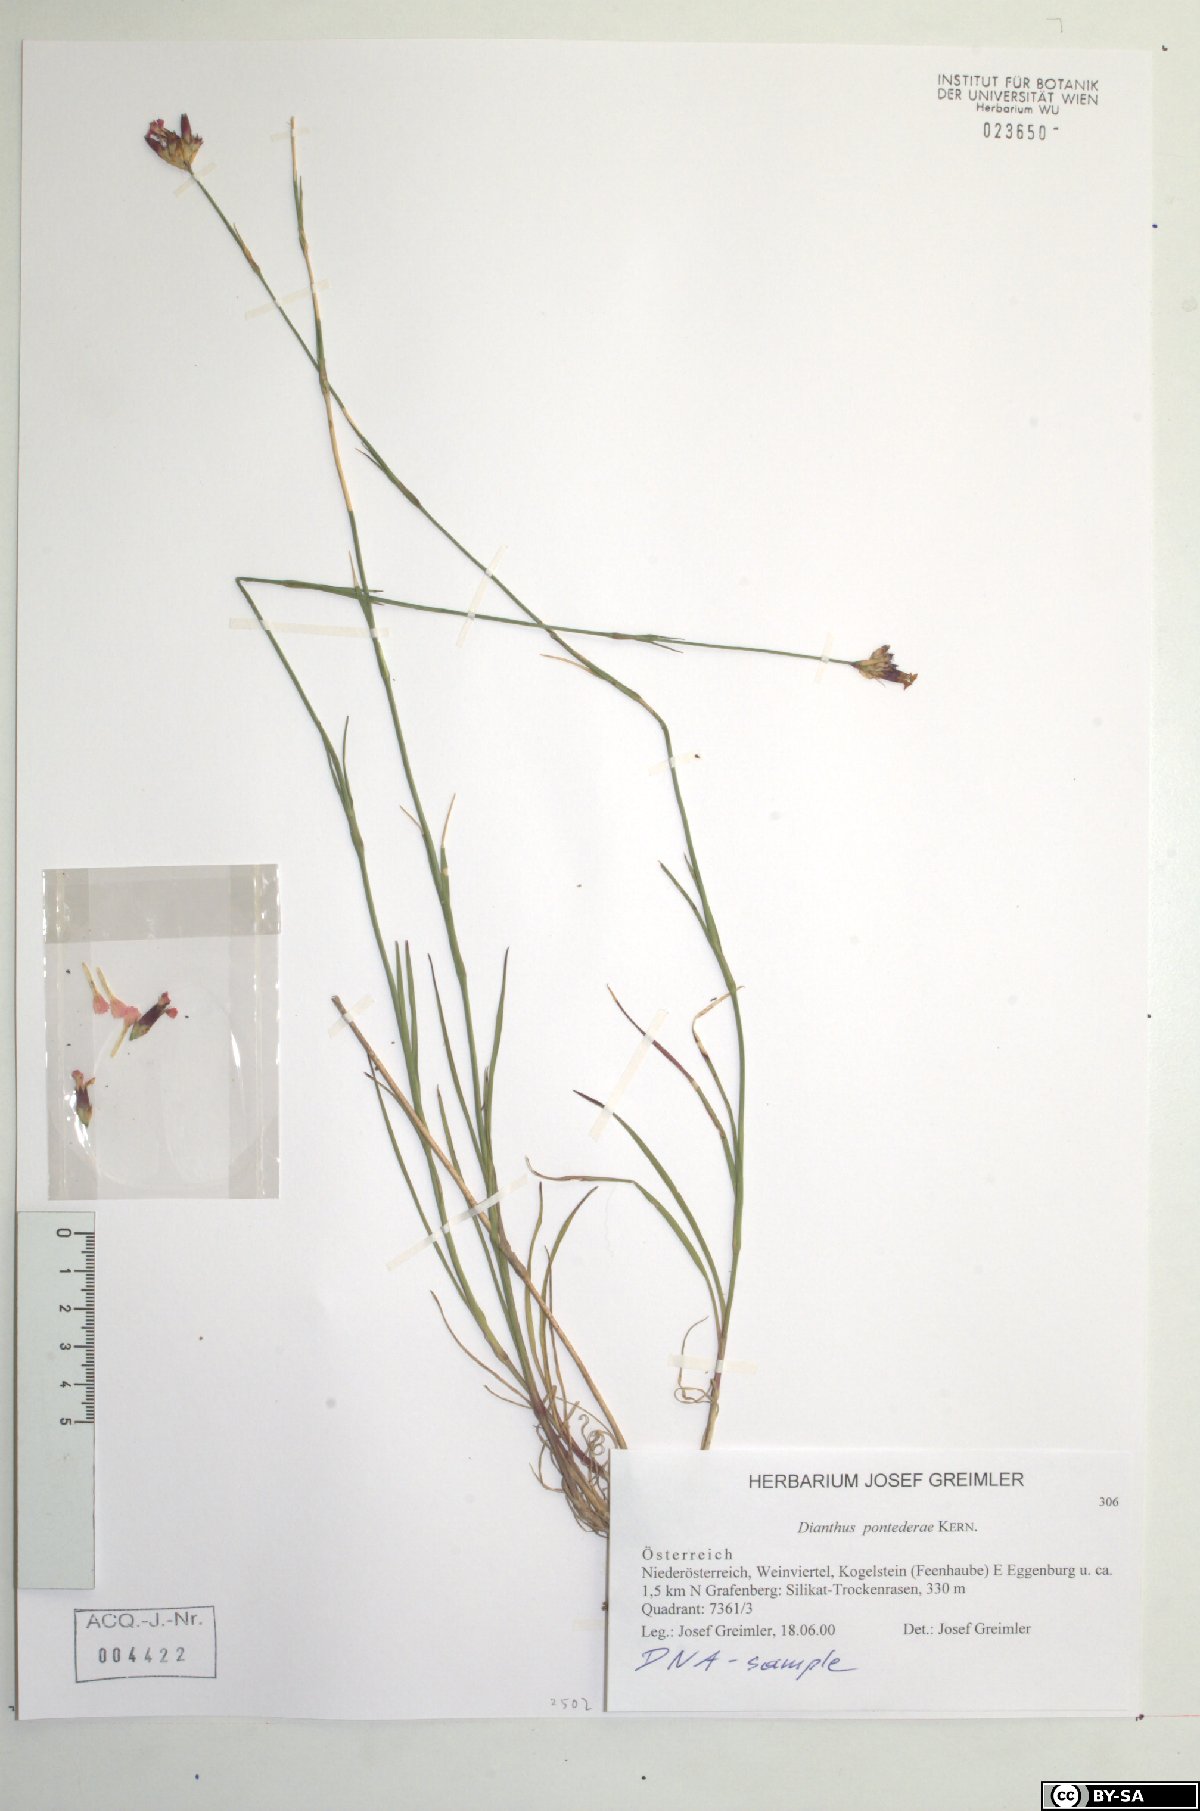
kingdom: Plantae
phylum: Tracheophyta
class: Magnoliopsida
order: Caryophyllales
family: Caryophyllaceae
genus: Dianthus
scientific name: Dianthus pontederae
